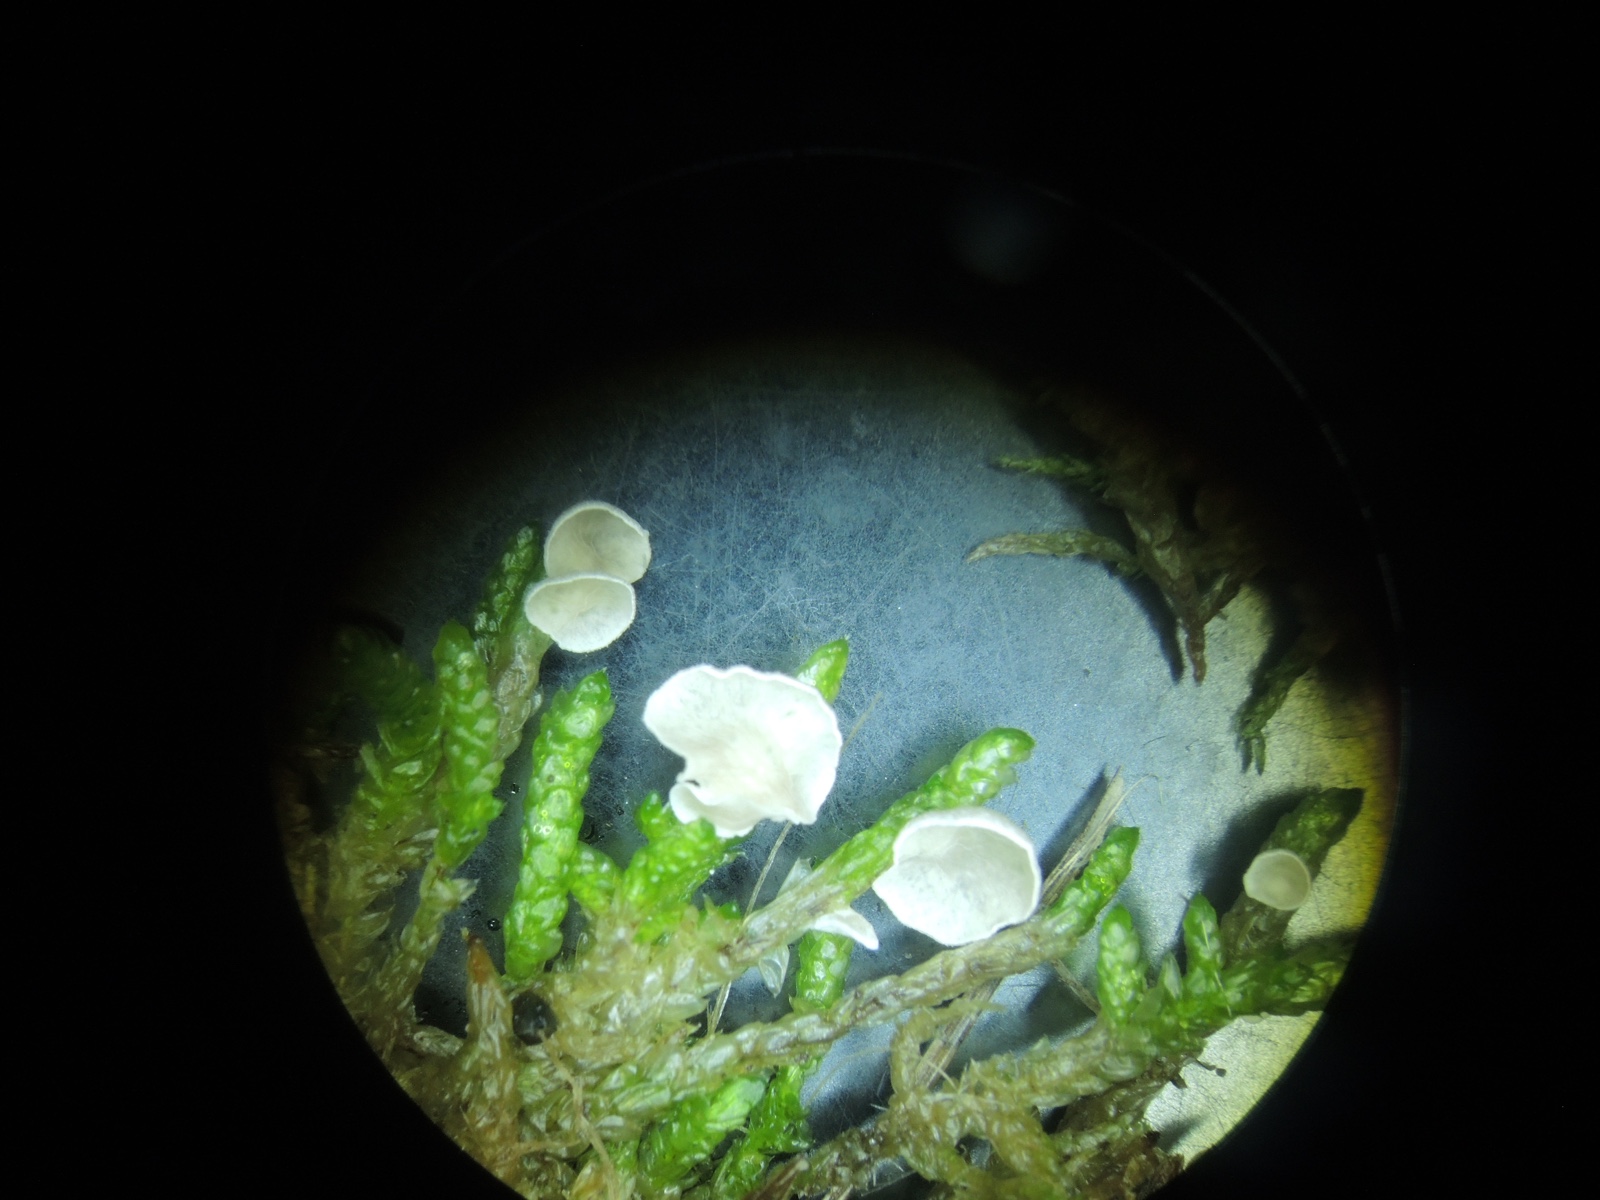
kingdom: Fungi
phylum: Basidiomycota
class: Agaricomycetes
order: Agaricales
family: Hygrophoraceae
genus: Arrhenia
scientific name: Arrhenia retiruga
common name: lille fontænehat
